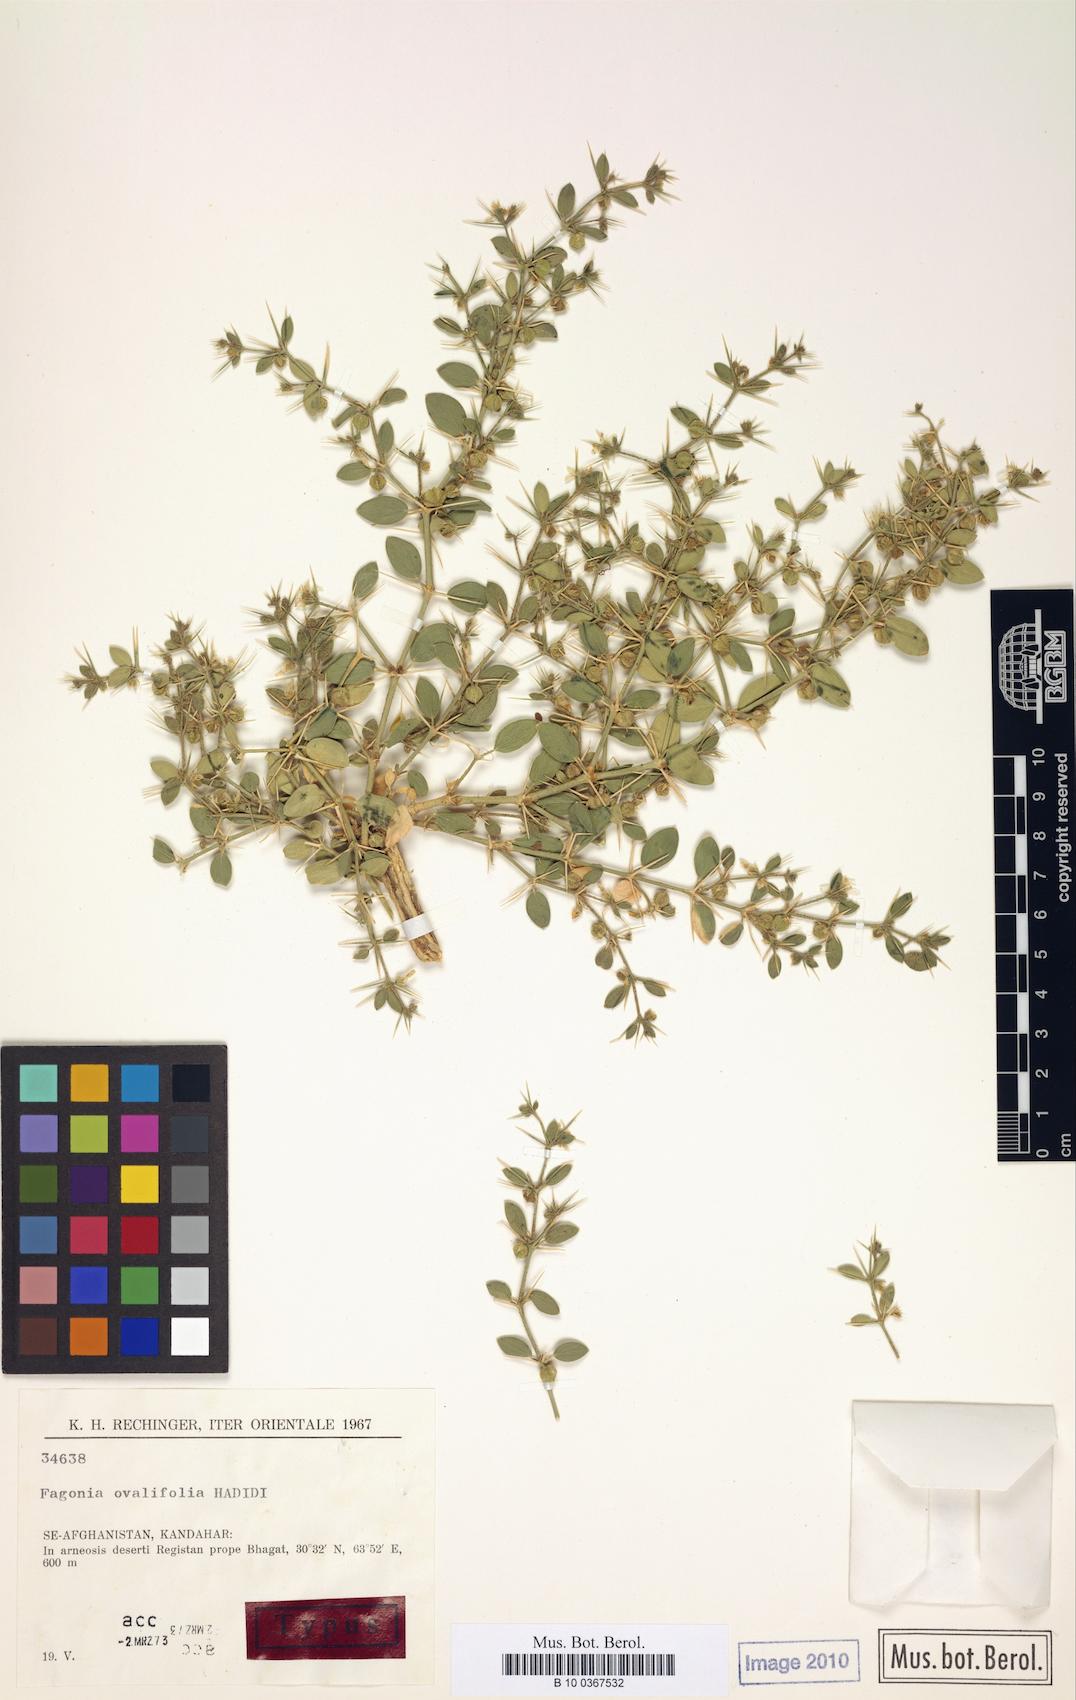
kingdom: Plantae
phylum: Tracheophyta
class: Magnoliopsida
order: Zygophyllales
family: Zygophyllaceae
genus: Fagonia
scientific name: Fagonia indica
